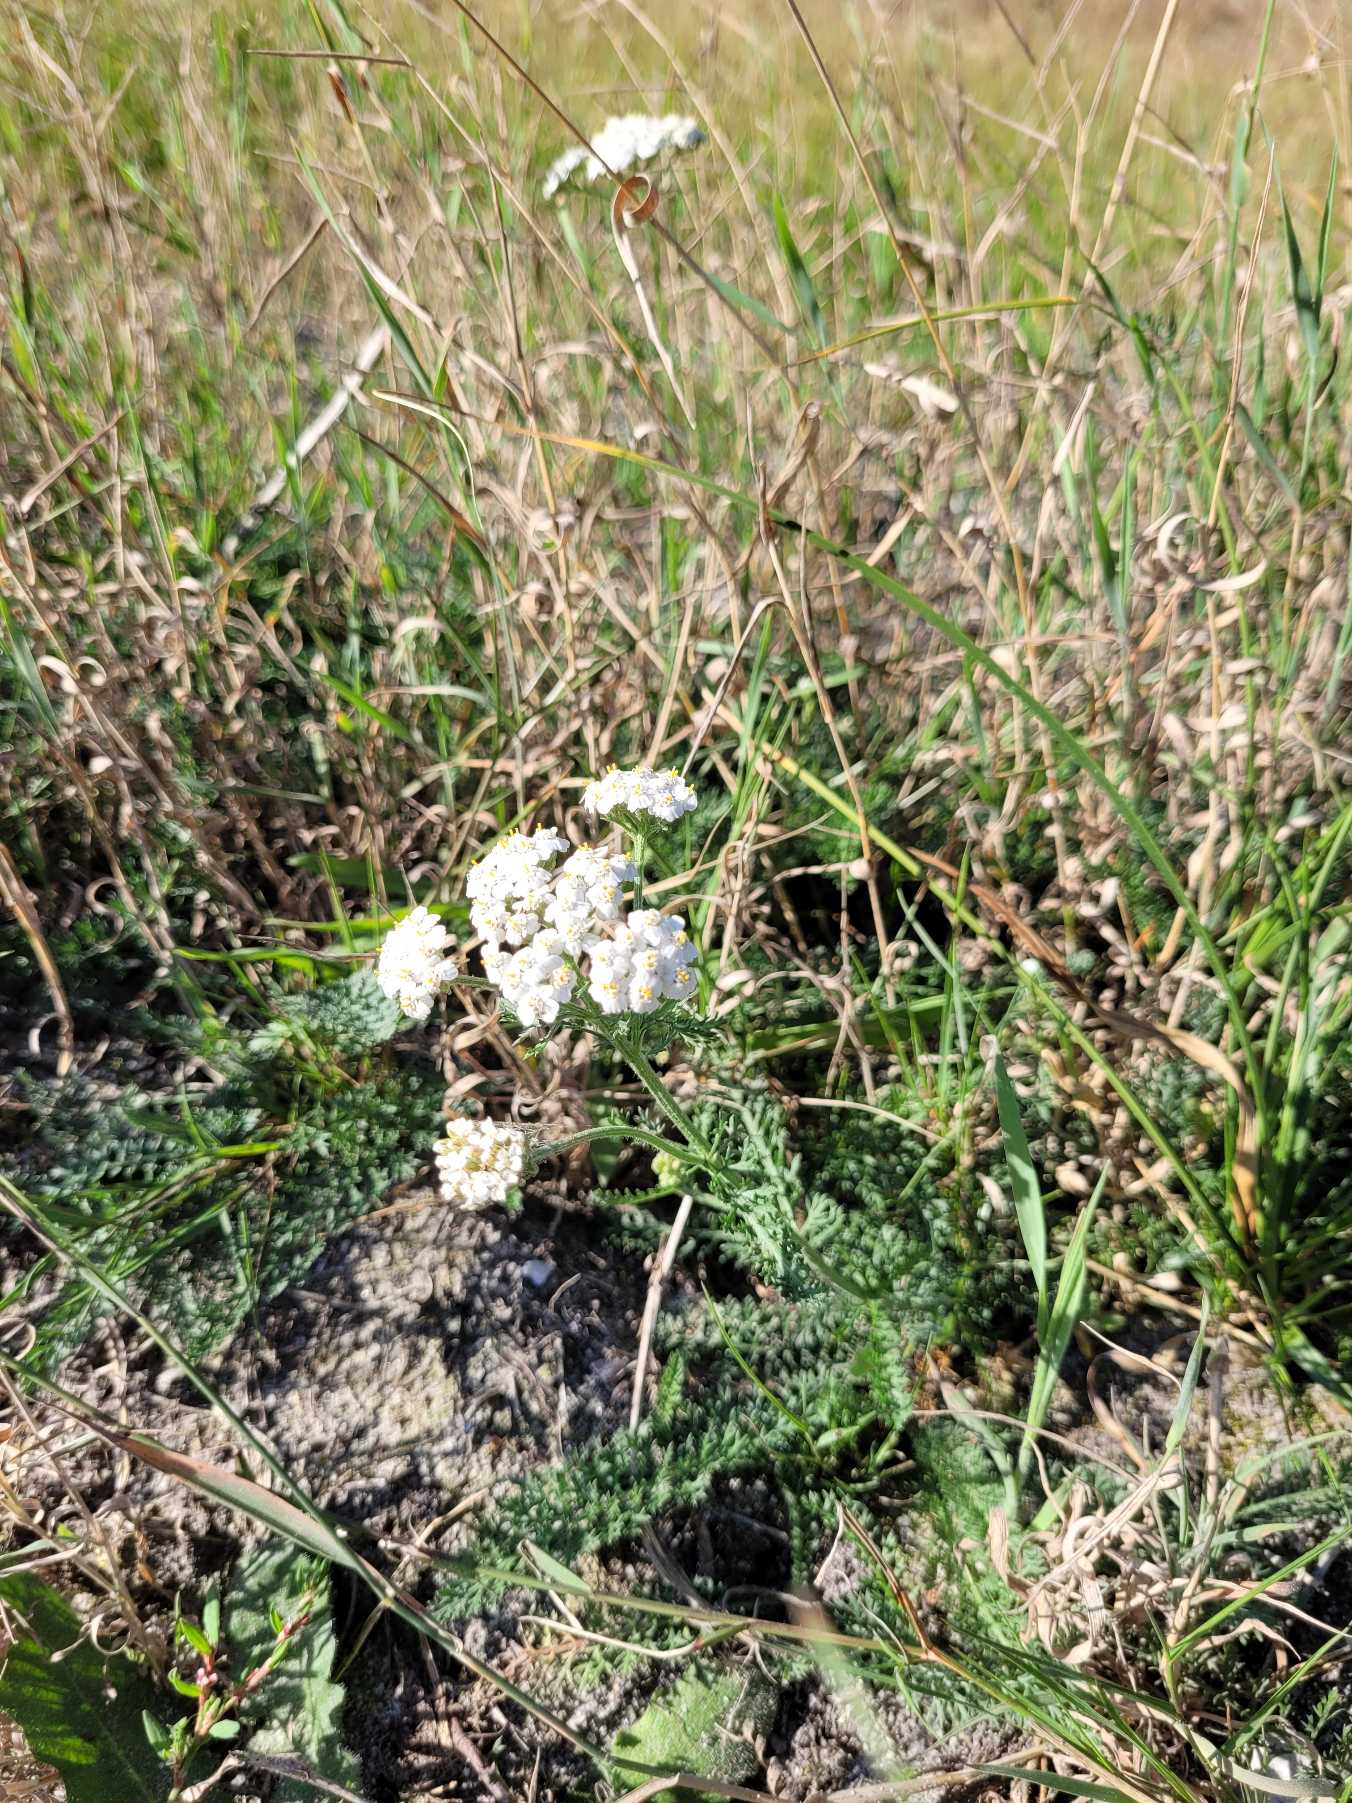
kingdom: Plantae
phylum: Tracheophyta
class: Magnoliopsida
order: Asterales
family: Asteraceae
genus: Achillea
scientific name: Achillea millefolium
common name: Almindelig røllike
